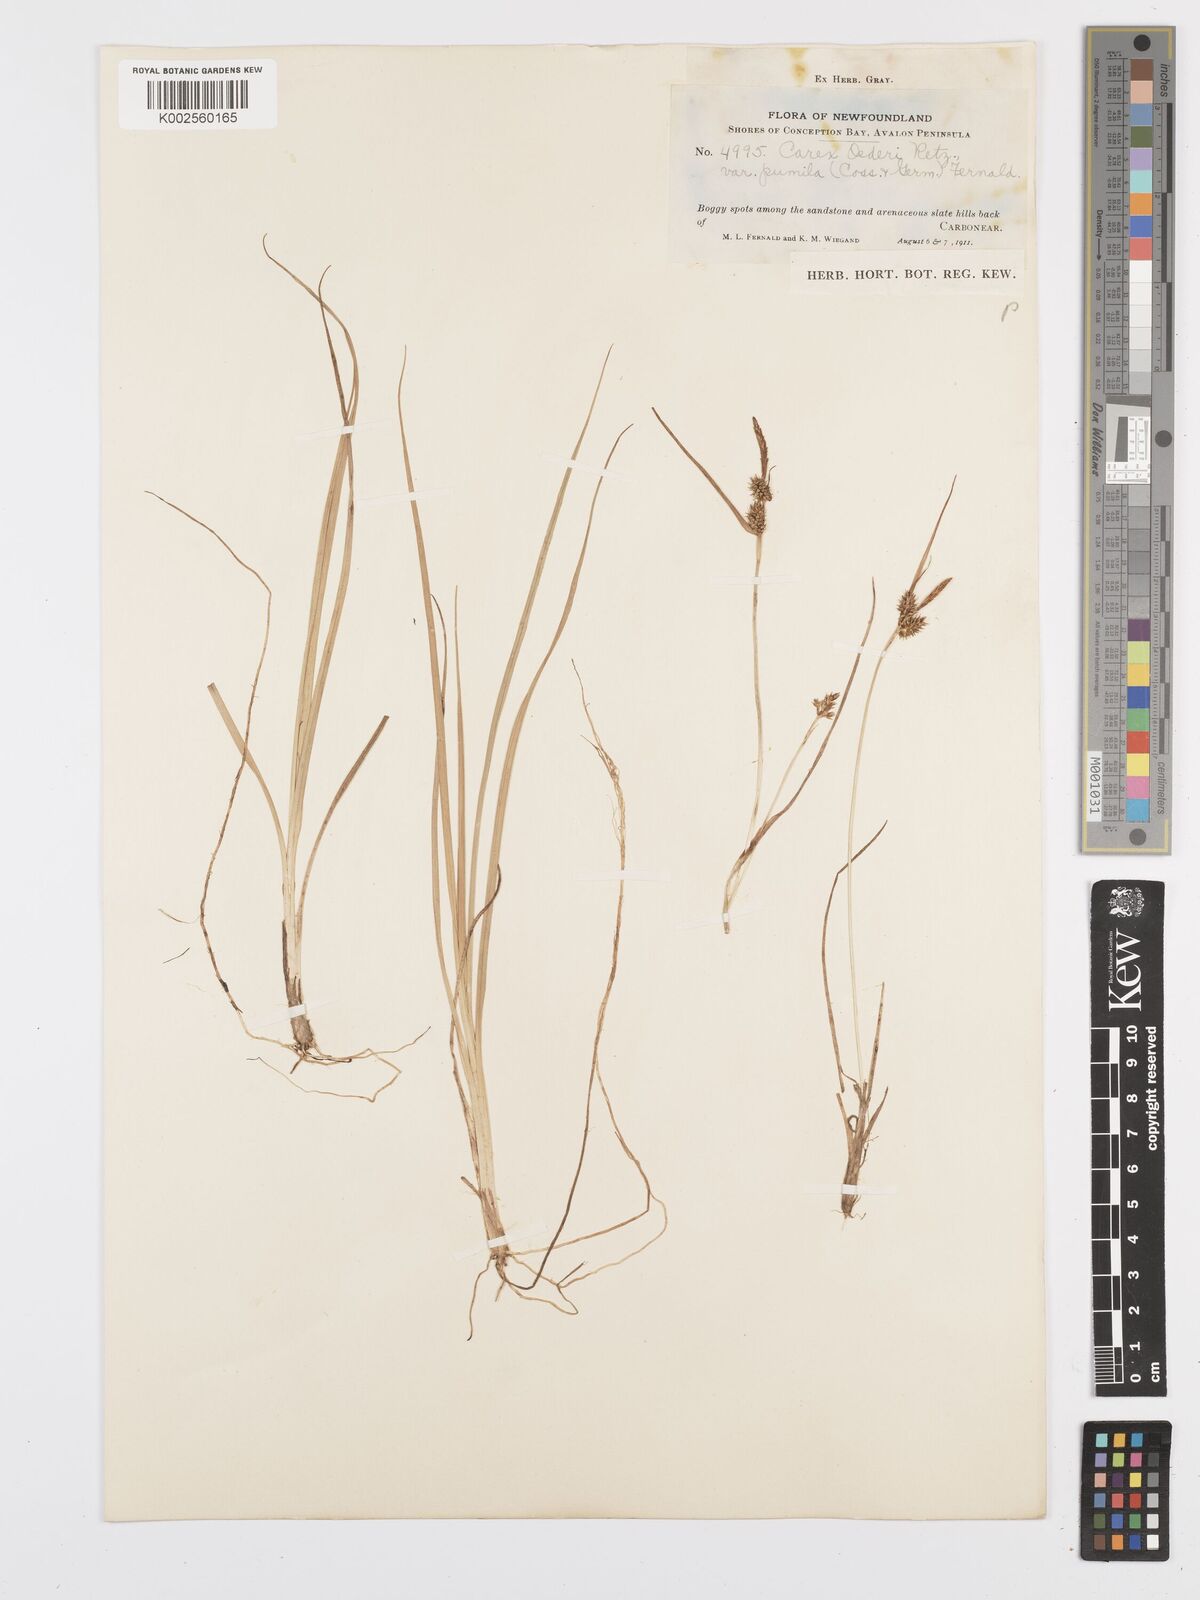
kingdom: Plantae
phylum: Tracheophyta
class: Liliopsida
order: Poales
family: Cyperaceae
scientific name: Cyperaceae
